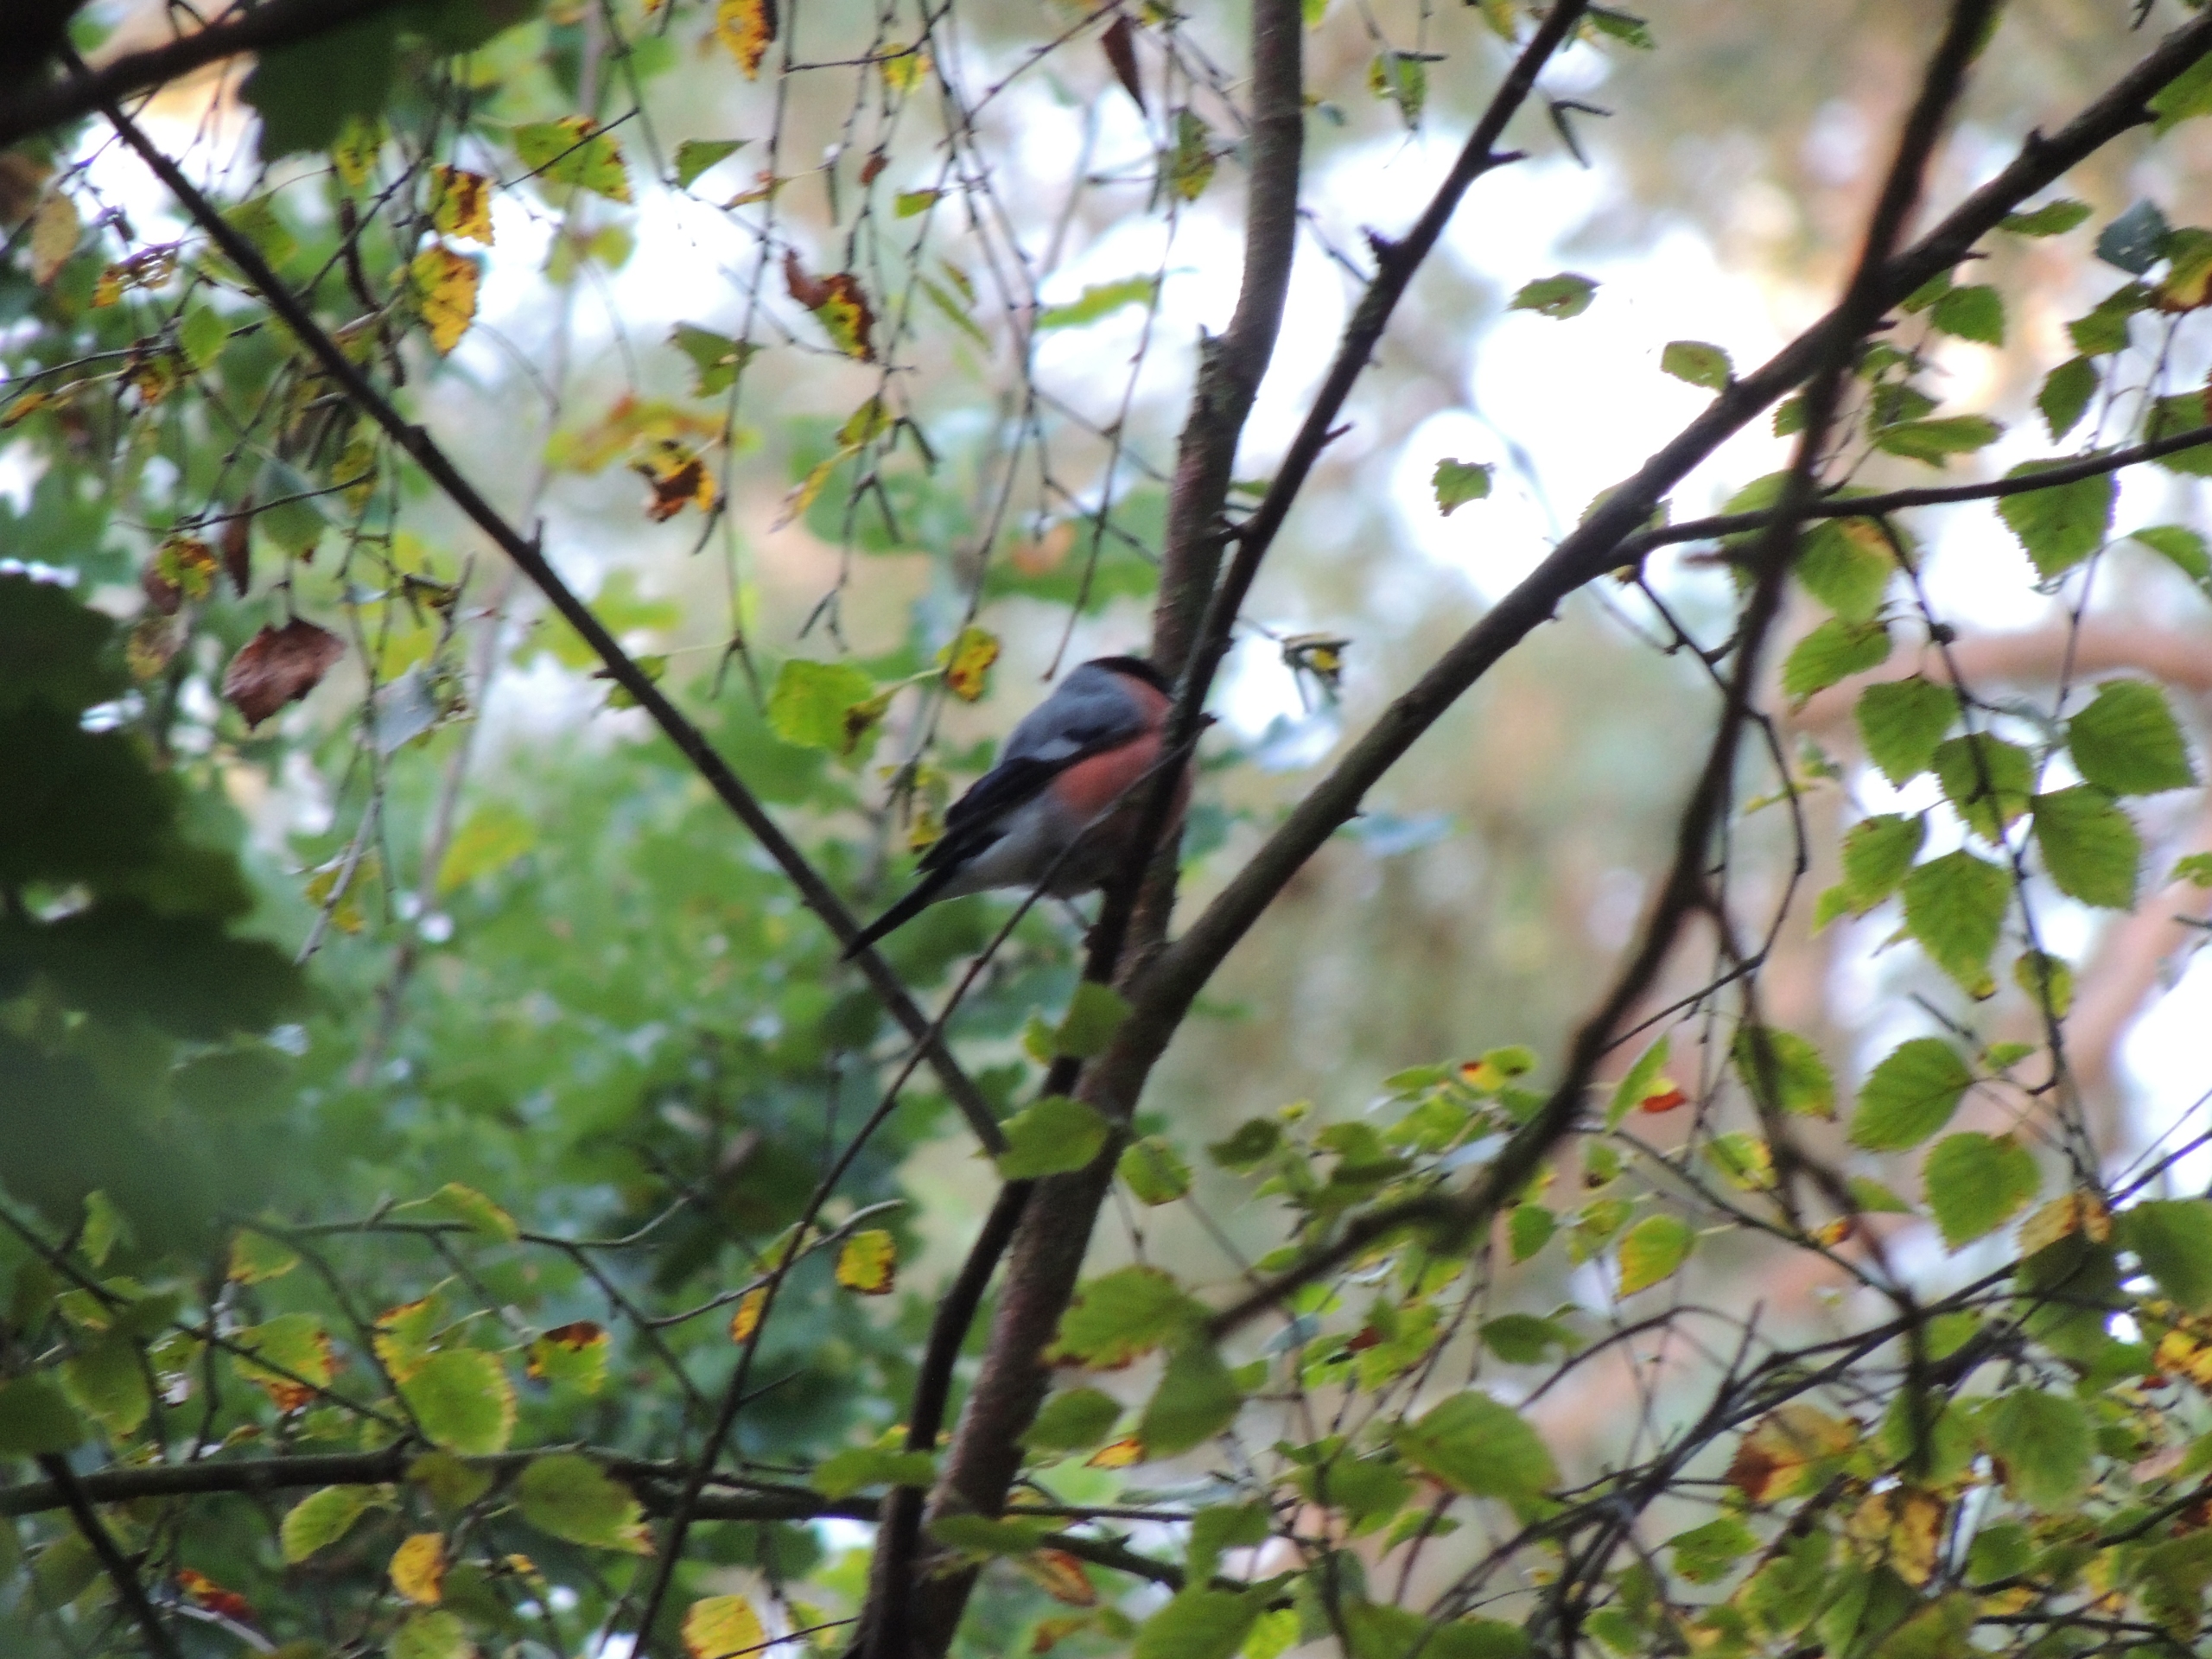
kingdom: Animalia
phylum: Chordata
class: Aves
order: Passeriformes
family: Fringillidae
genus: Pyrrhula
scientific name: Pyrrhula pyrrhula
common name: Dompap
